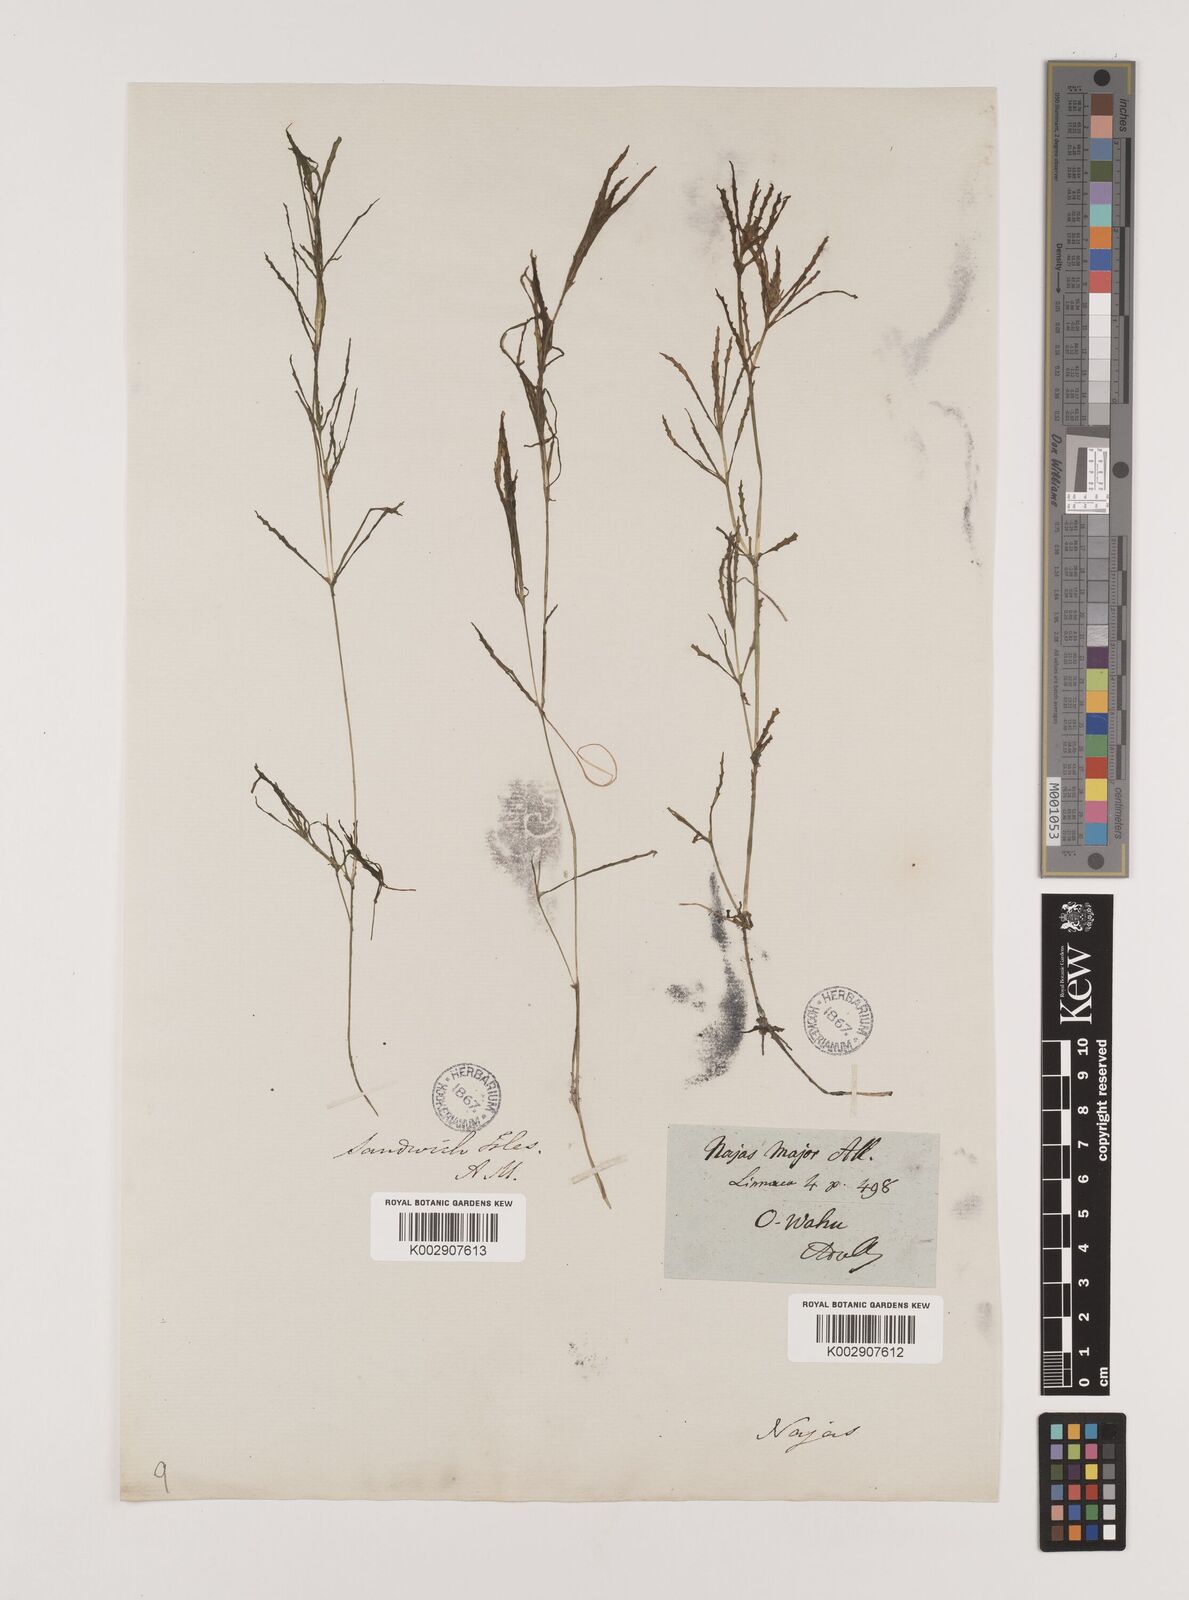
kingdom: Plantae
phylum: Tracheophyta
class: Liliopsida
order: Alismatales
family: Hydrocharitaceae
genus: Najas
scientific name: Najas marina
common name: Holly-leaved naiad
